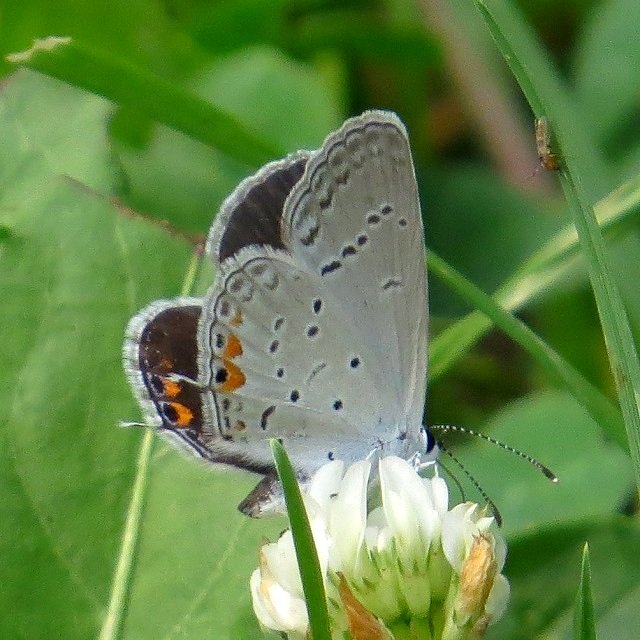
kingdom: Animalia
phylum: Arthropoda
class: Insecta
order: Lepidoptera
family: Lycaenidae
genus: Elkalyce
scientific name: Elkalyce comyntas
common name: Eastern Tailed-Blue
